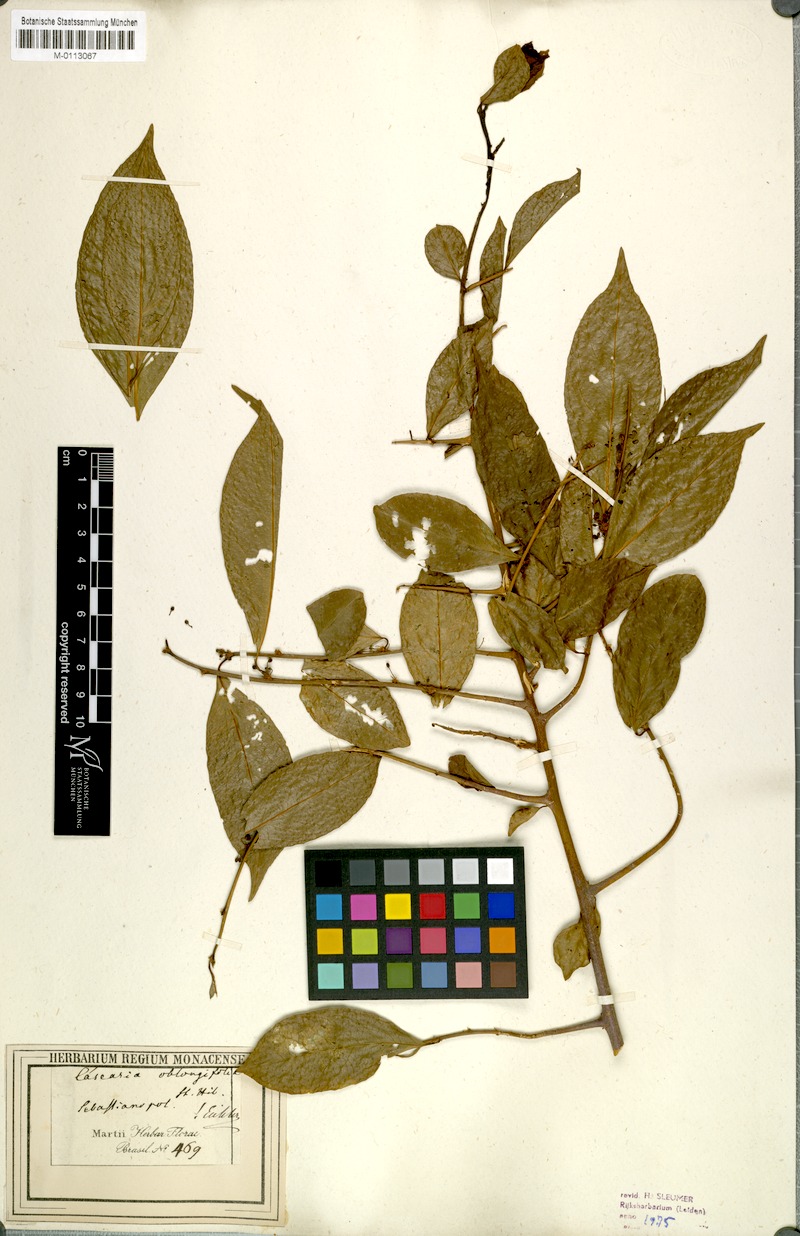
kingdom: Plantae
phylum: Tracheophyta
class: Magnoliopsida
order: Malpighiales
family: Salicaceae
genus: Casearia
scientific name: Casearia oblongifolia
